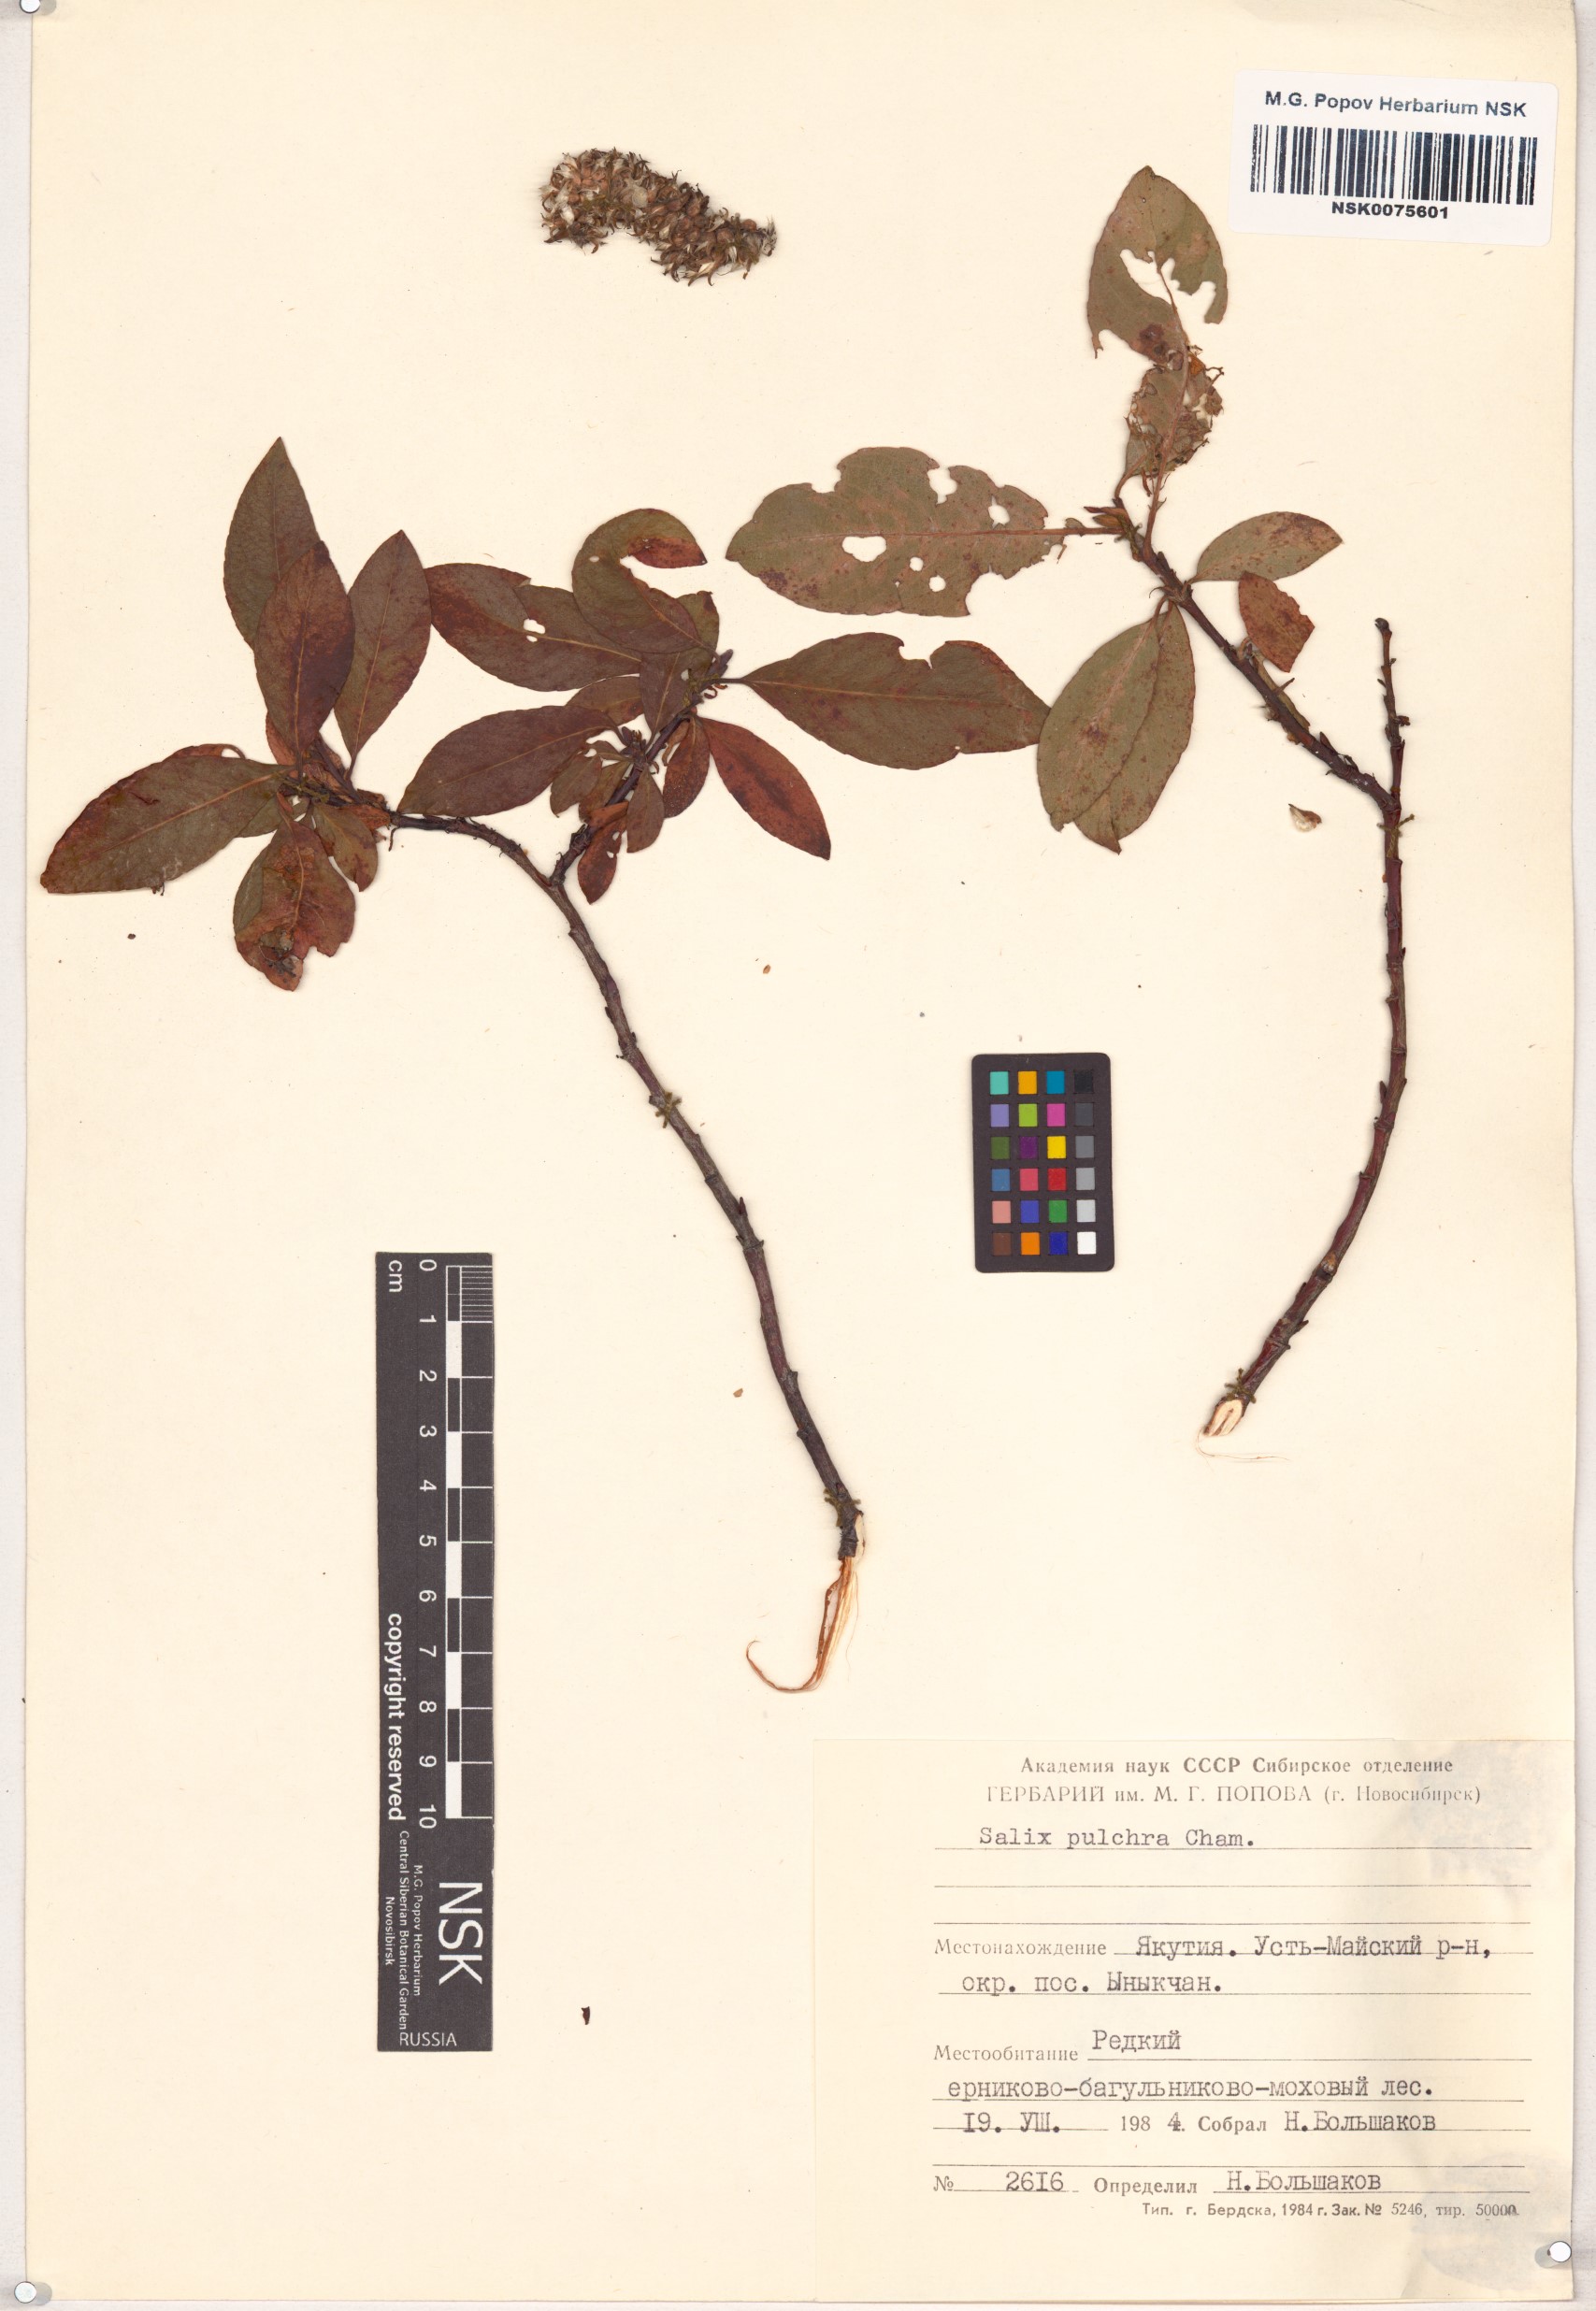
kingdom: Plantae
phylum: Tracheophyta
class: Magnoliopsida
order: Malpighiales
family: Salicaceae
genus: Salix
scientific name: Salix pulchra
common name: Diamond-leaved willow
